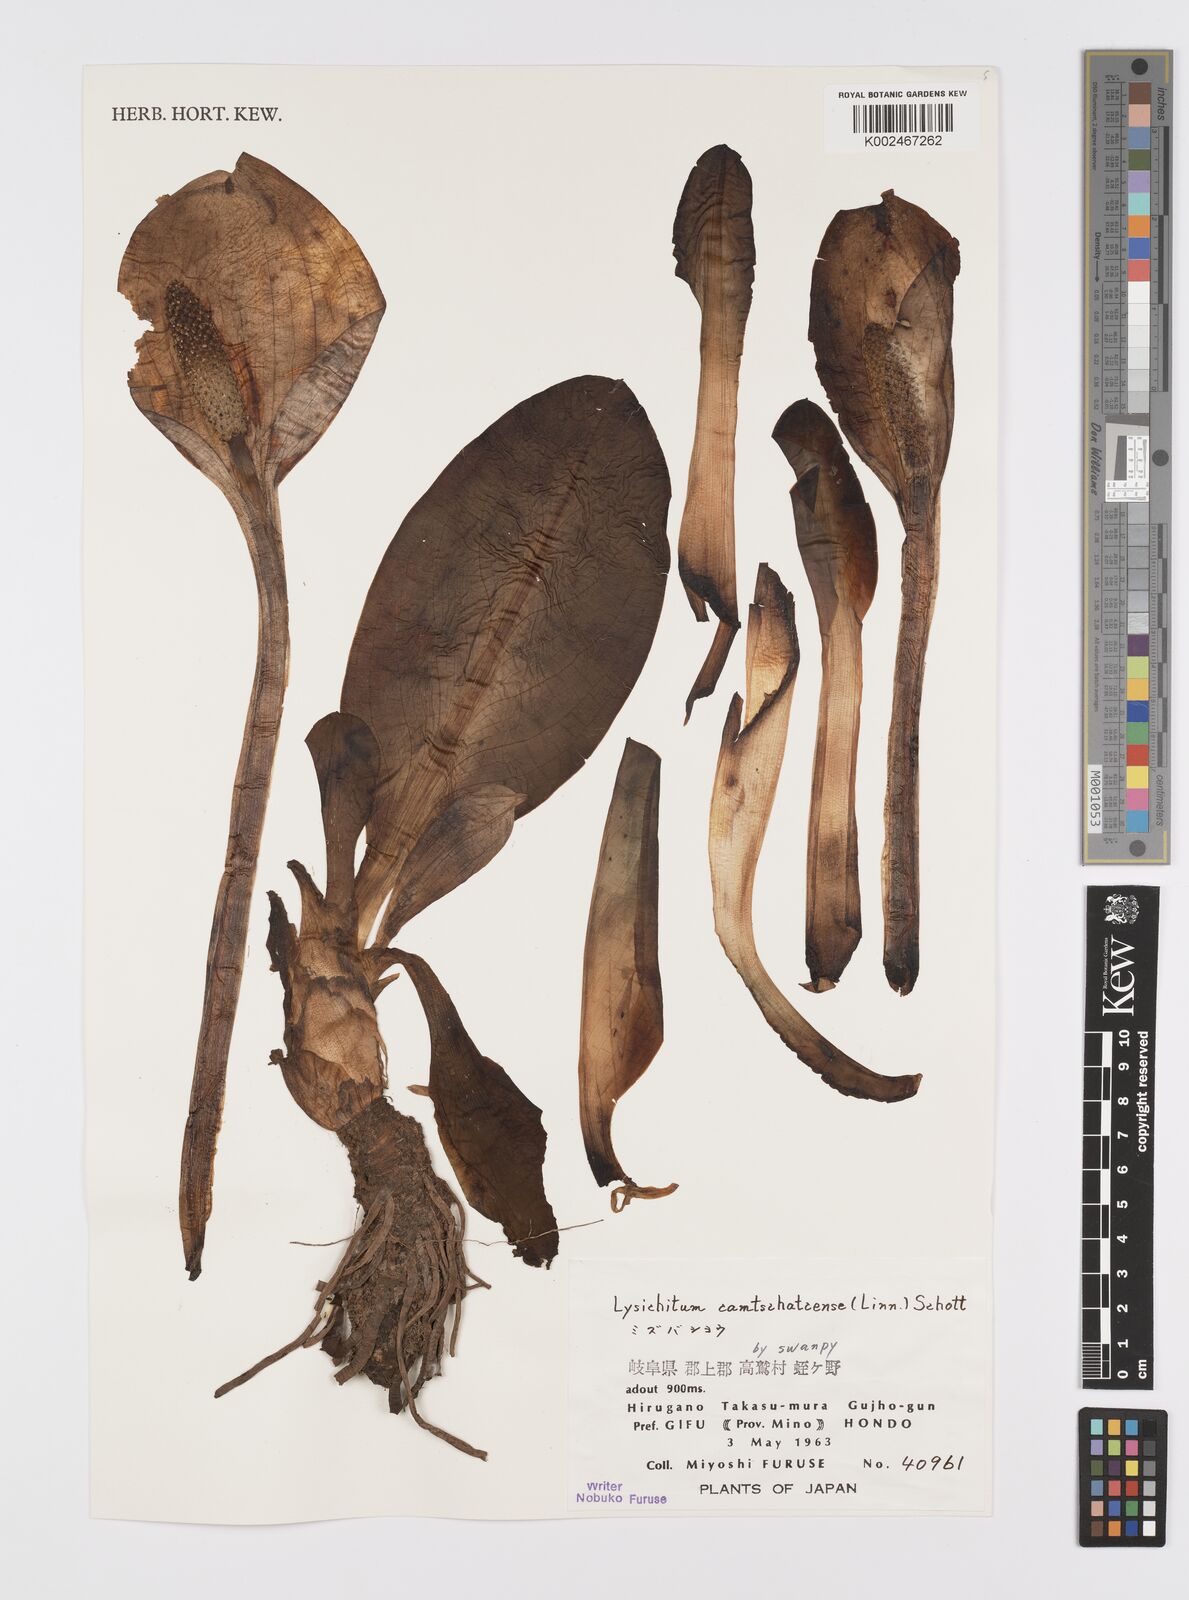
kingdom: Plantae
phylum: Tracheophyta
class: Liliopsida
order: Alismatales
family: Araceae
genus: Lysichiton
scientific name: Lysichiton camtschatcensis
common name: Asian skunk-cabbage
